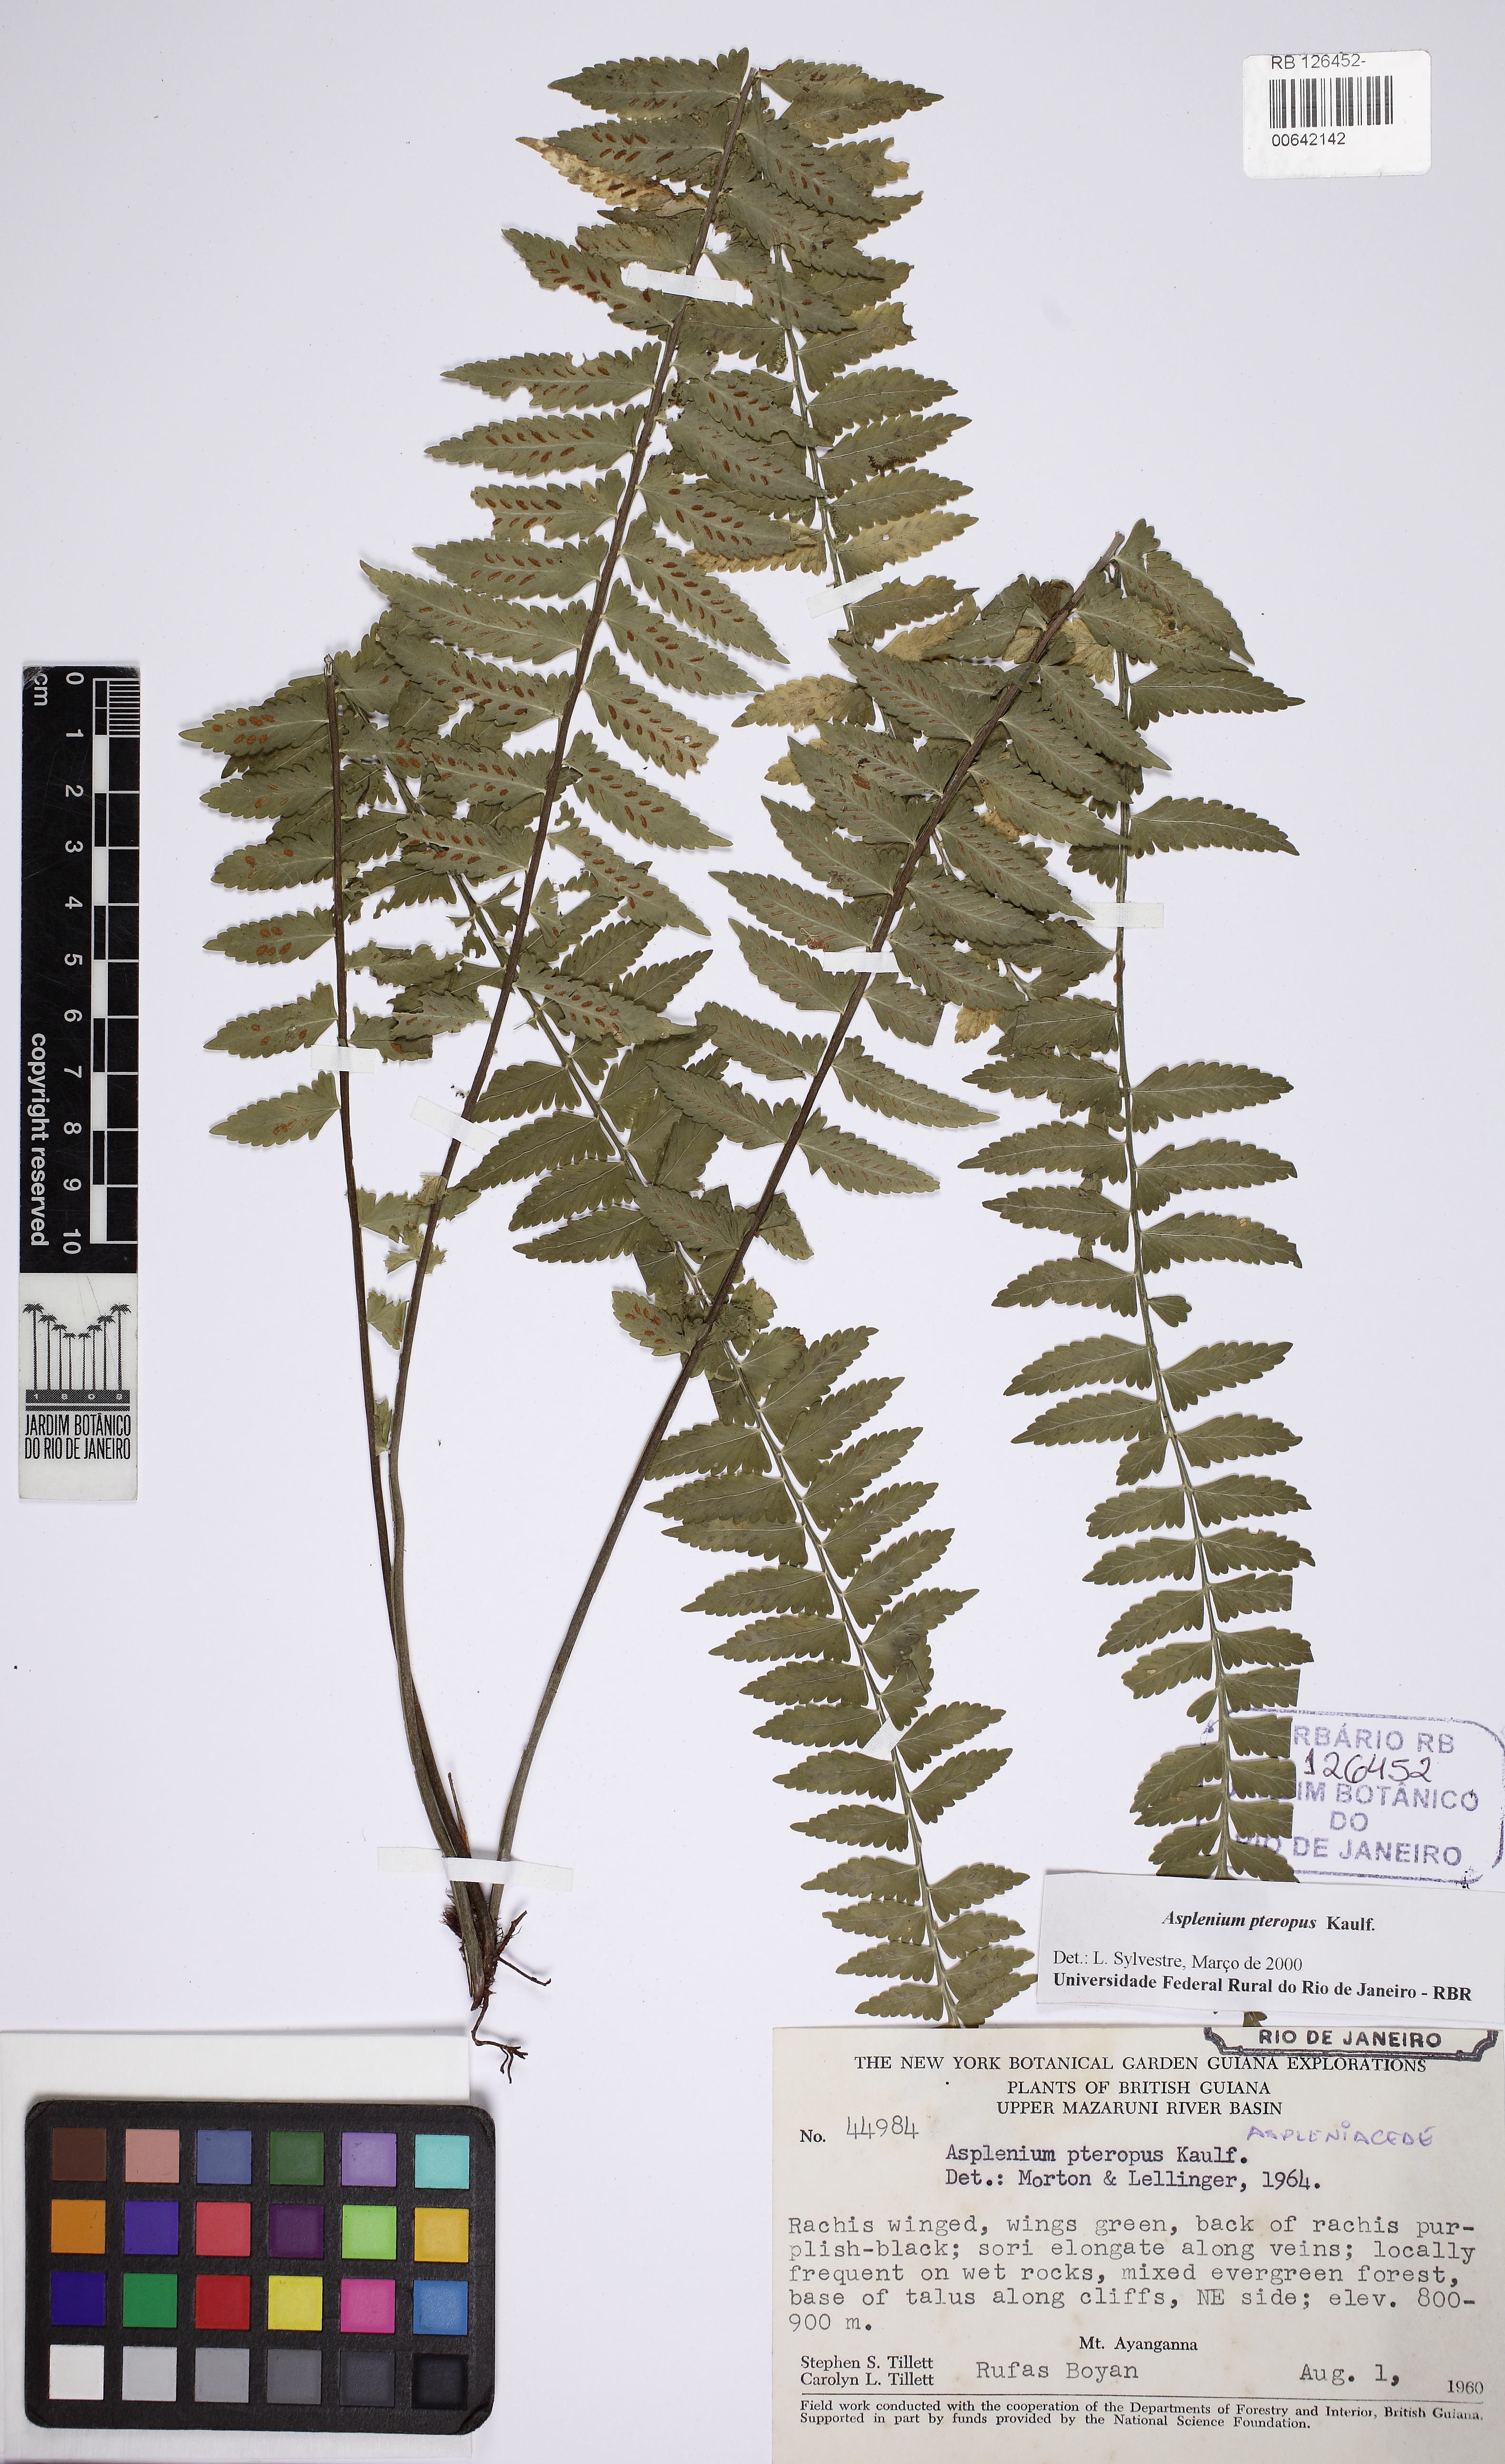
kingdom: Plantae
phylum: Tracheophyta
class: Polypodiopsida
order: Polypodiales
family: Aspleniaceae
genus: Asplenium
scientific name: Asplenium pteropus
